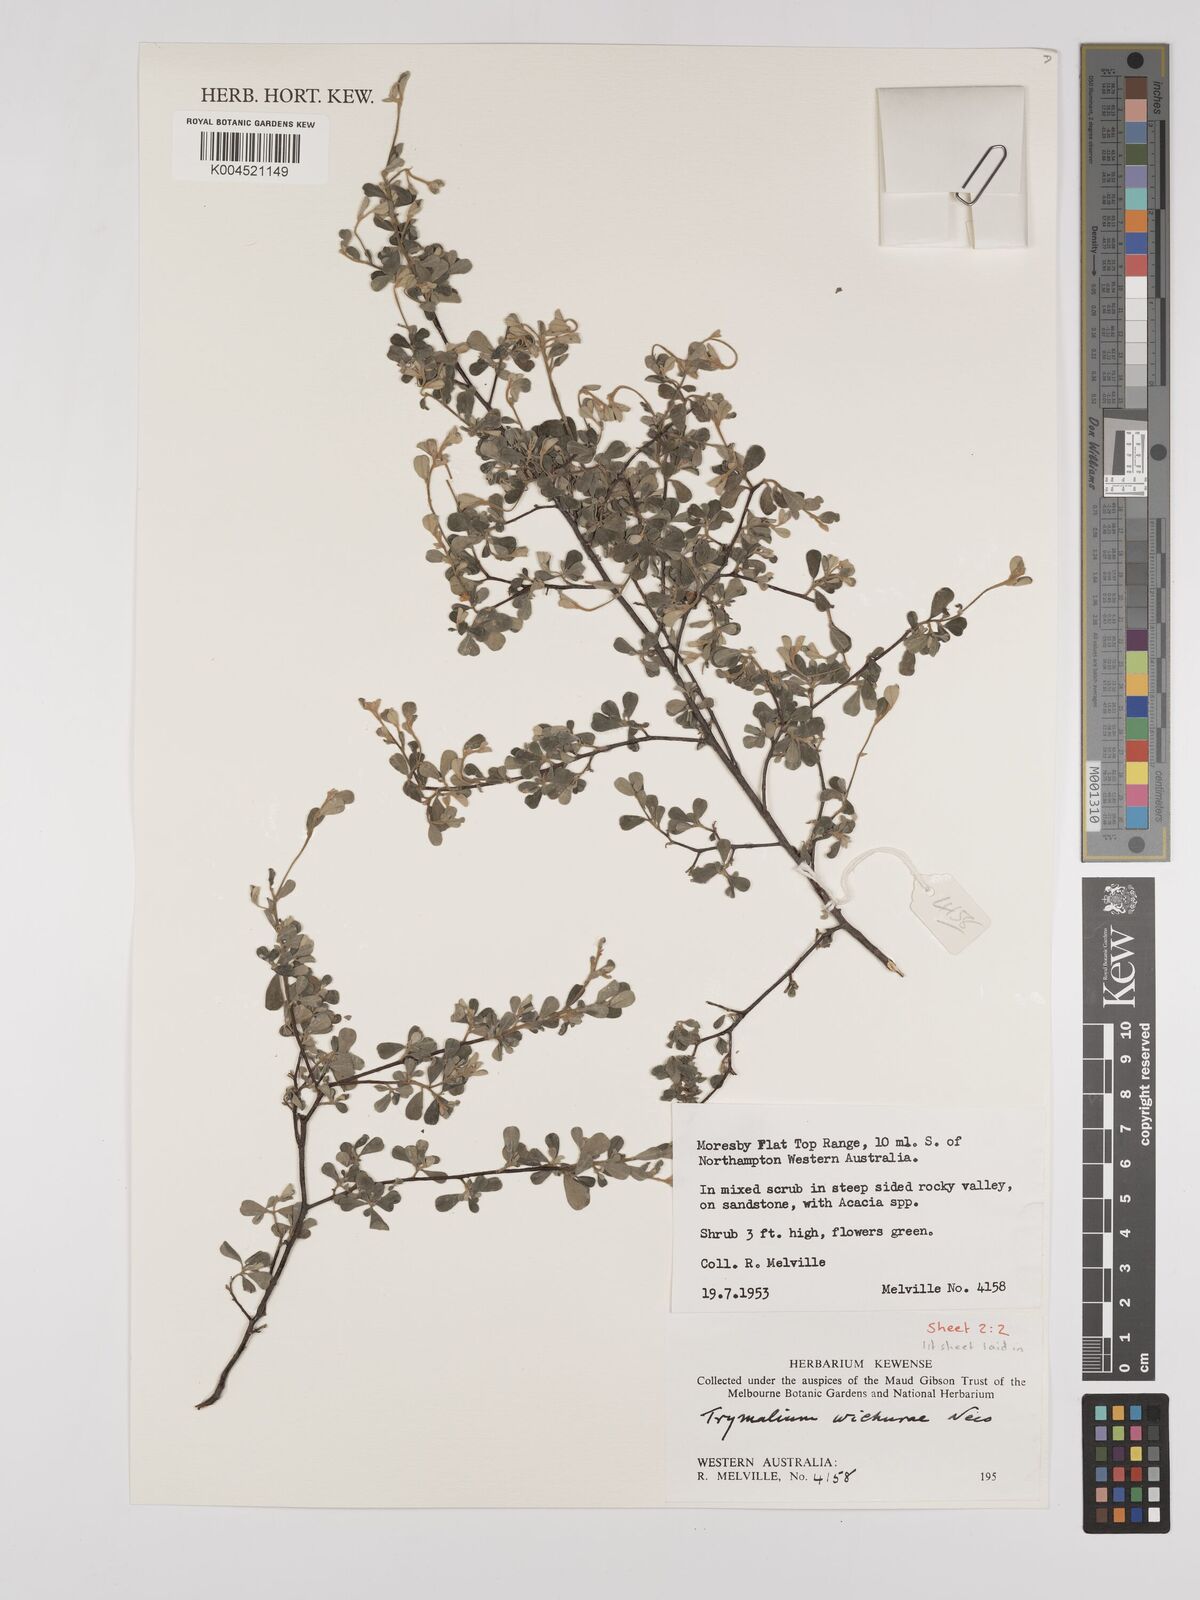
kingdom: Plantae
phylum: Tracheophyta
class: Magnoliopsida
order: Rosales
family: Rhamnaceae
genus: Polianthion
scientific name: Polianthion wichurae
